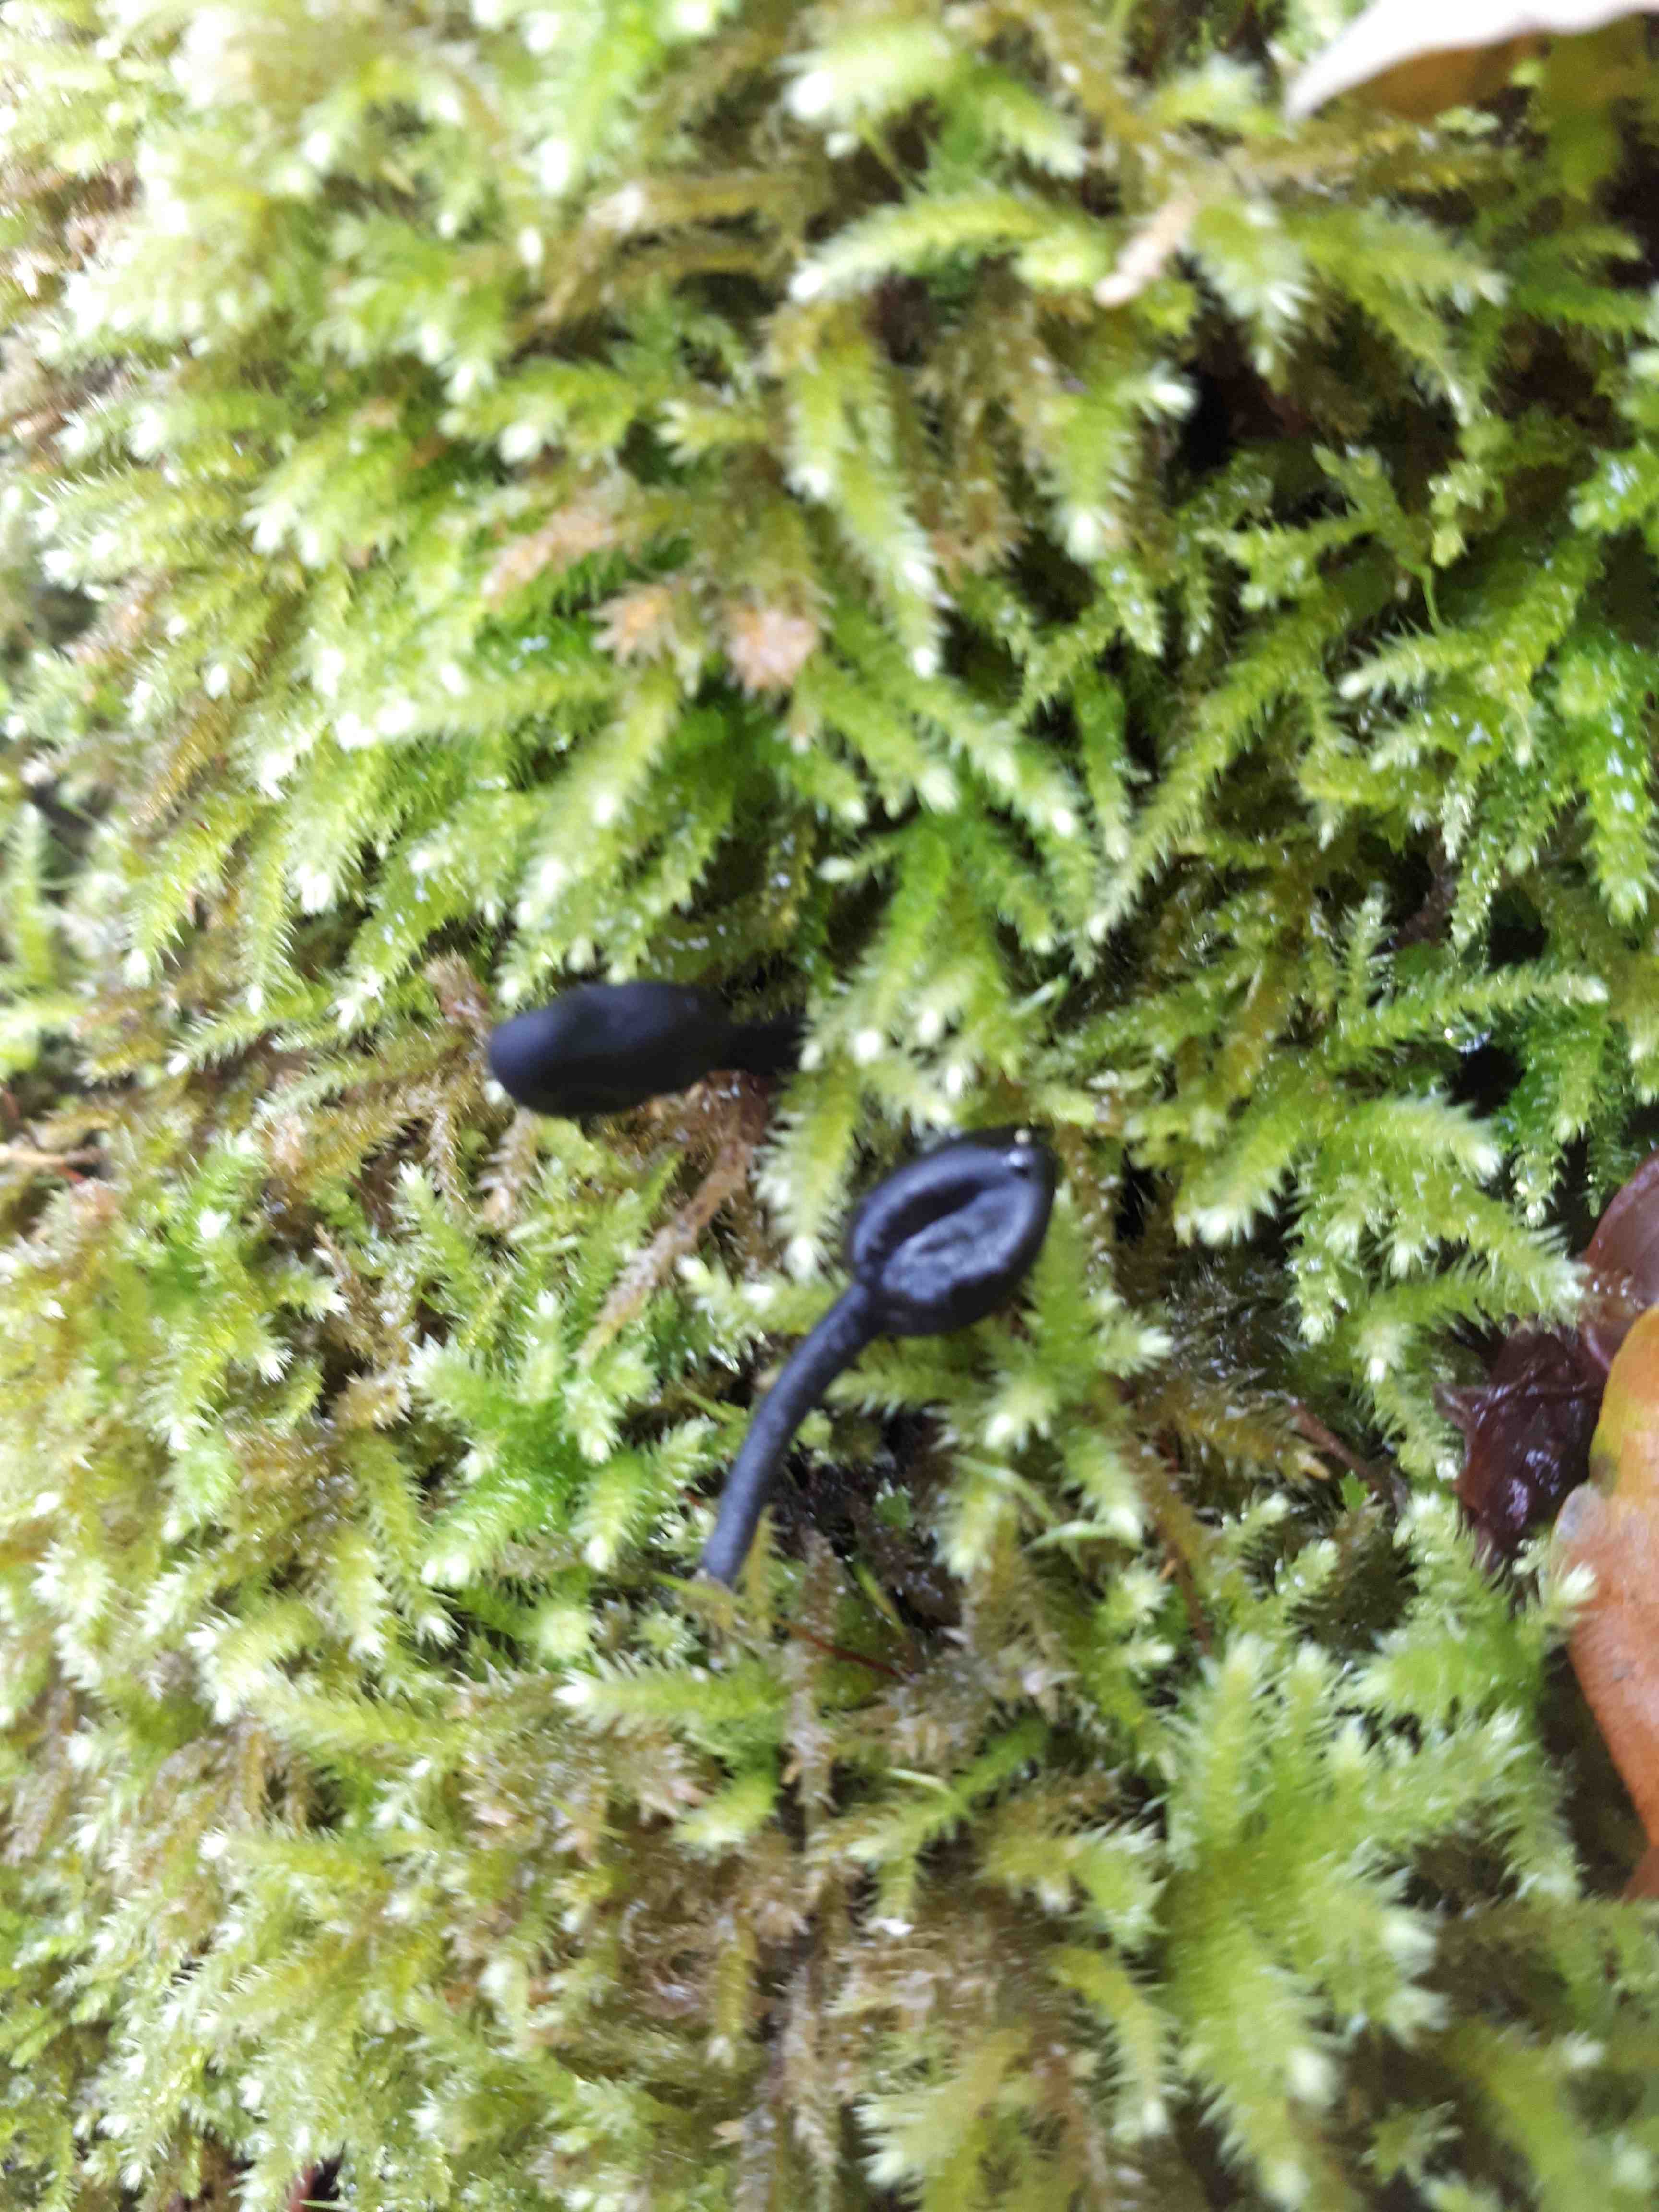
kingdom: Fungi
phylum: Ascomycota
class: Geoglossomycetes
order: Geoglossales
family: Geoglossaceae
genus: Trichoglossum
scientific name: Trichoglossum
